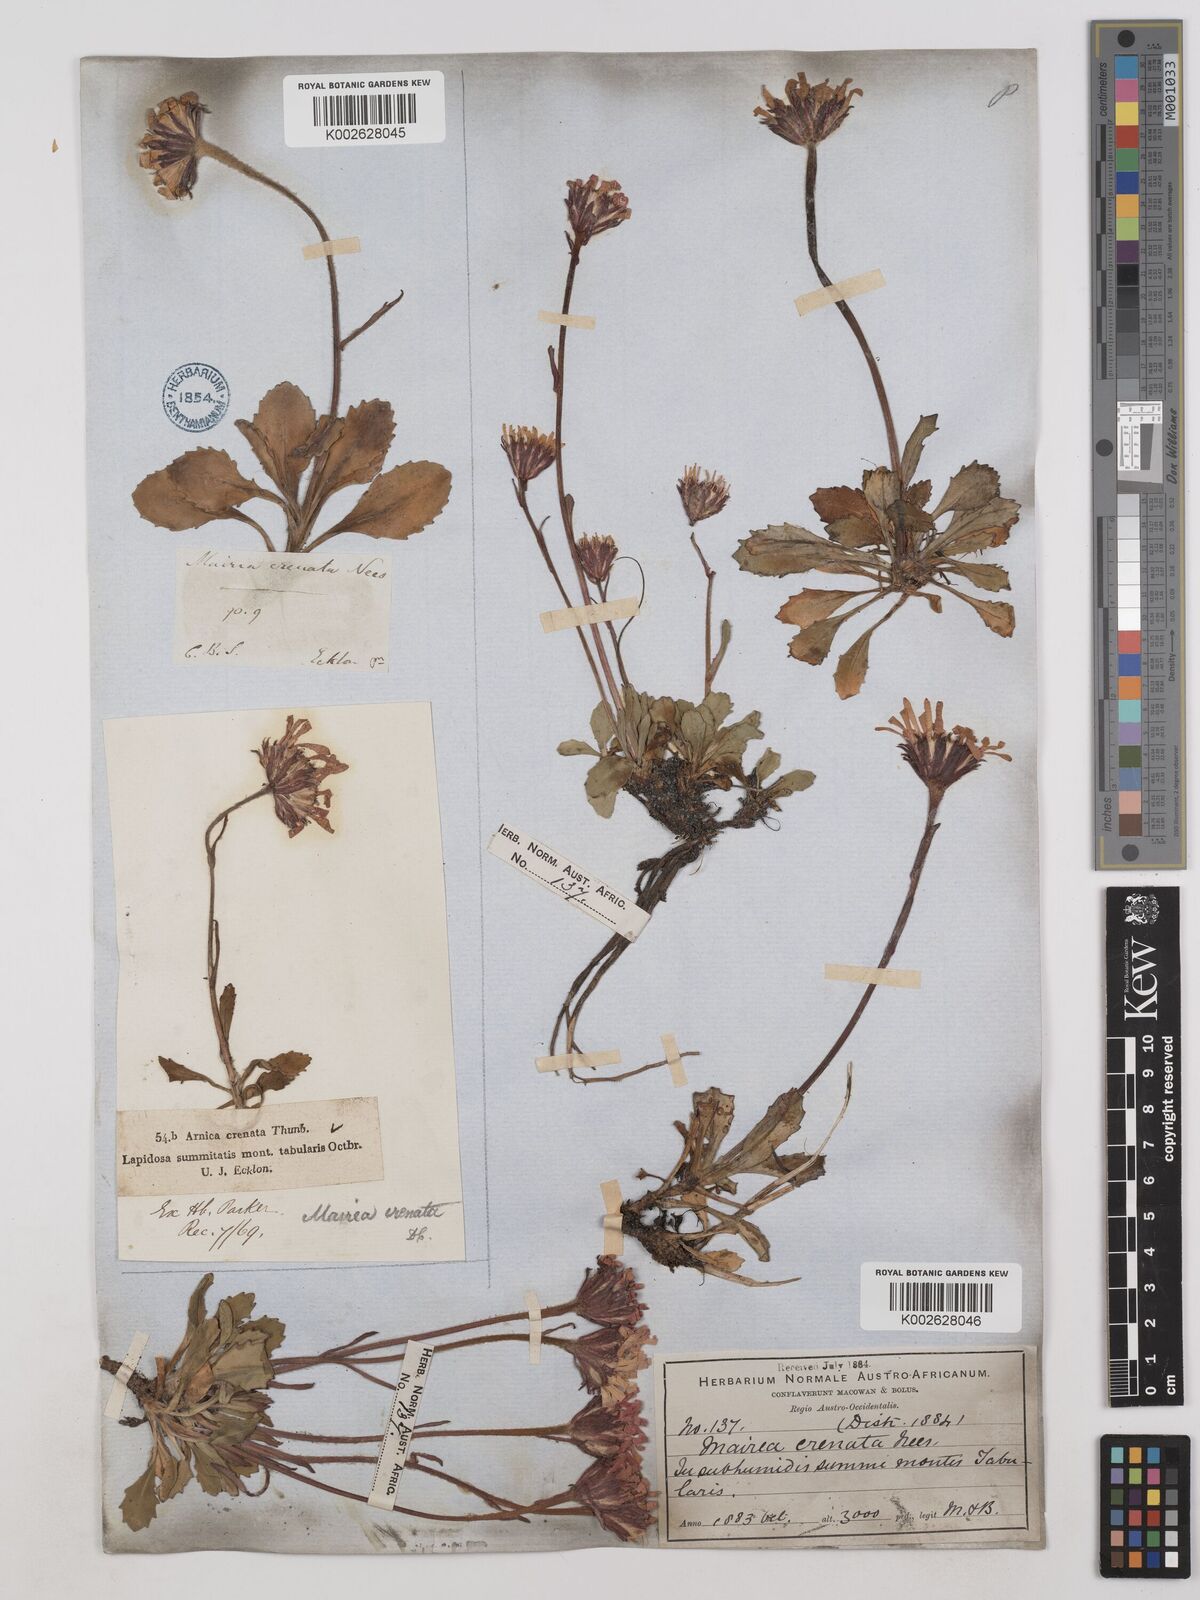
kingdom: Plantae
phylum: Tracheophyta
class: Magnoliopsida
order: Asterales
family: Asteraceae
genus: Zyrphelis
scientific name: Zyrphelis crenata
